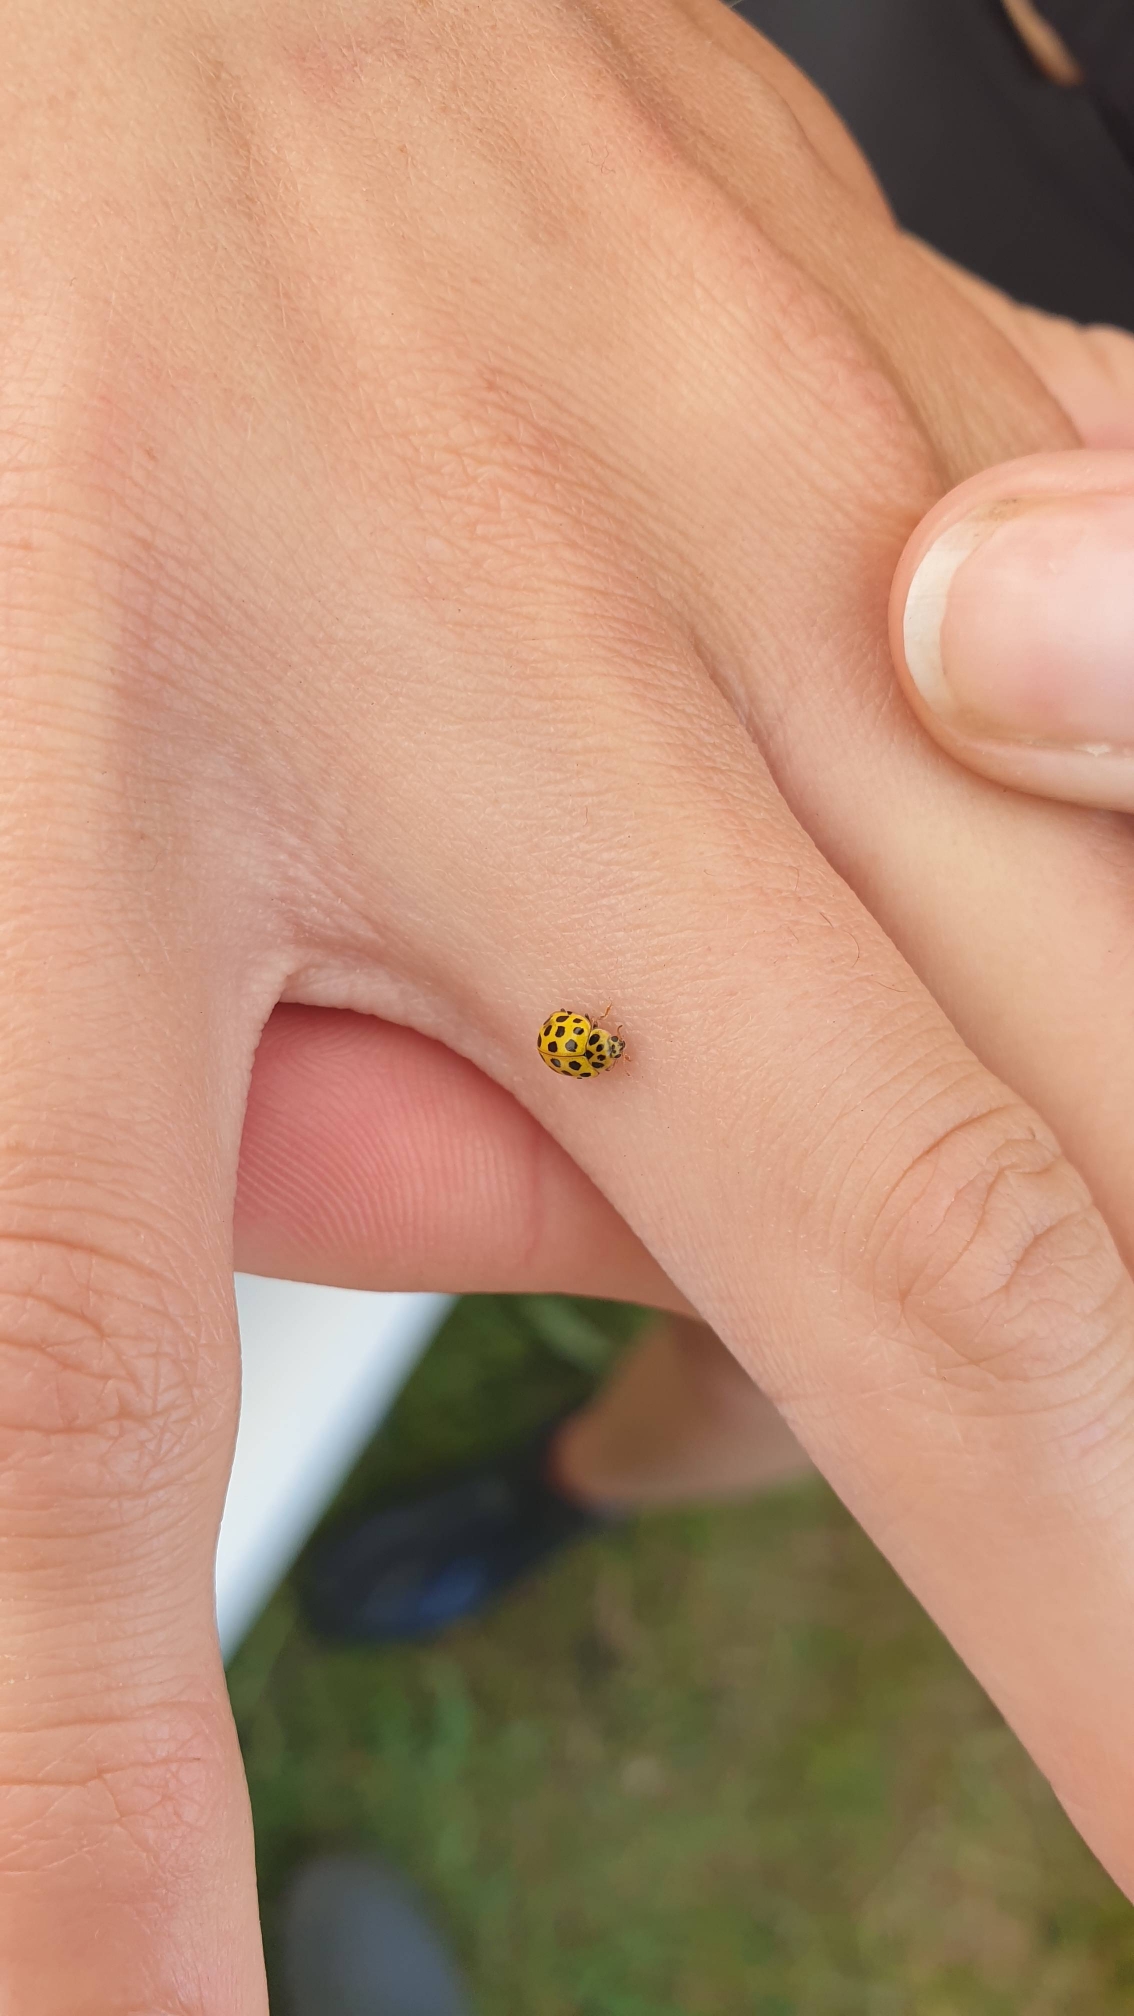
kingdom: Animalia
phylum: Arthropoda
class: Insecta
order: Coleoptera
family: Coccinellidae
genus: Psyllobora
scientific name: Psyllobora vigintiduopunctata
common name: Toogtyveplettet mariehøne
